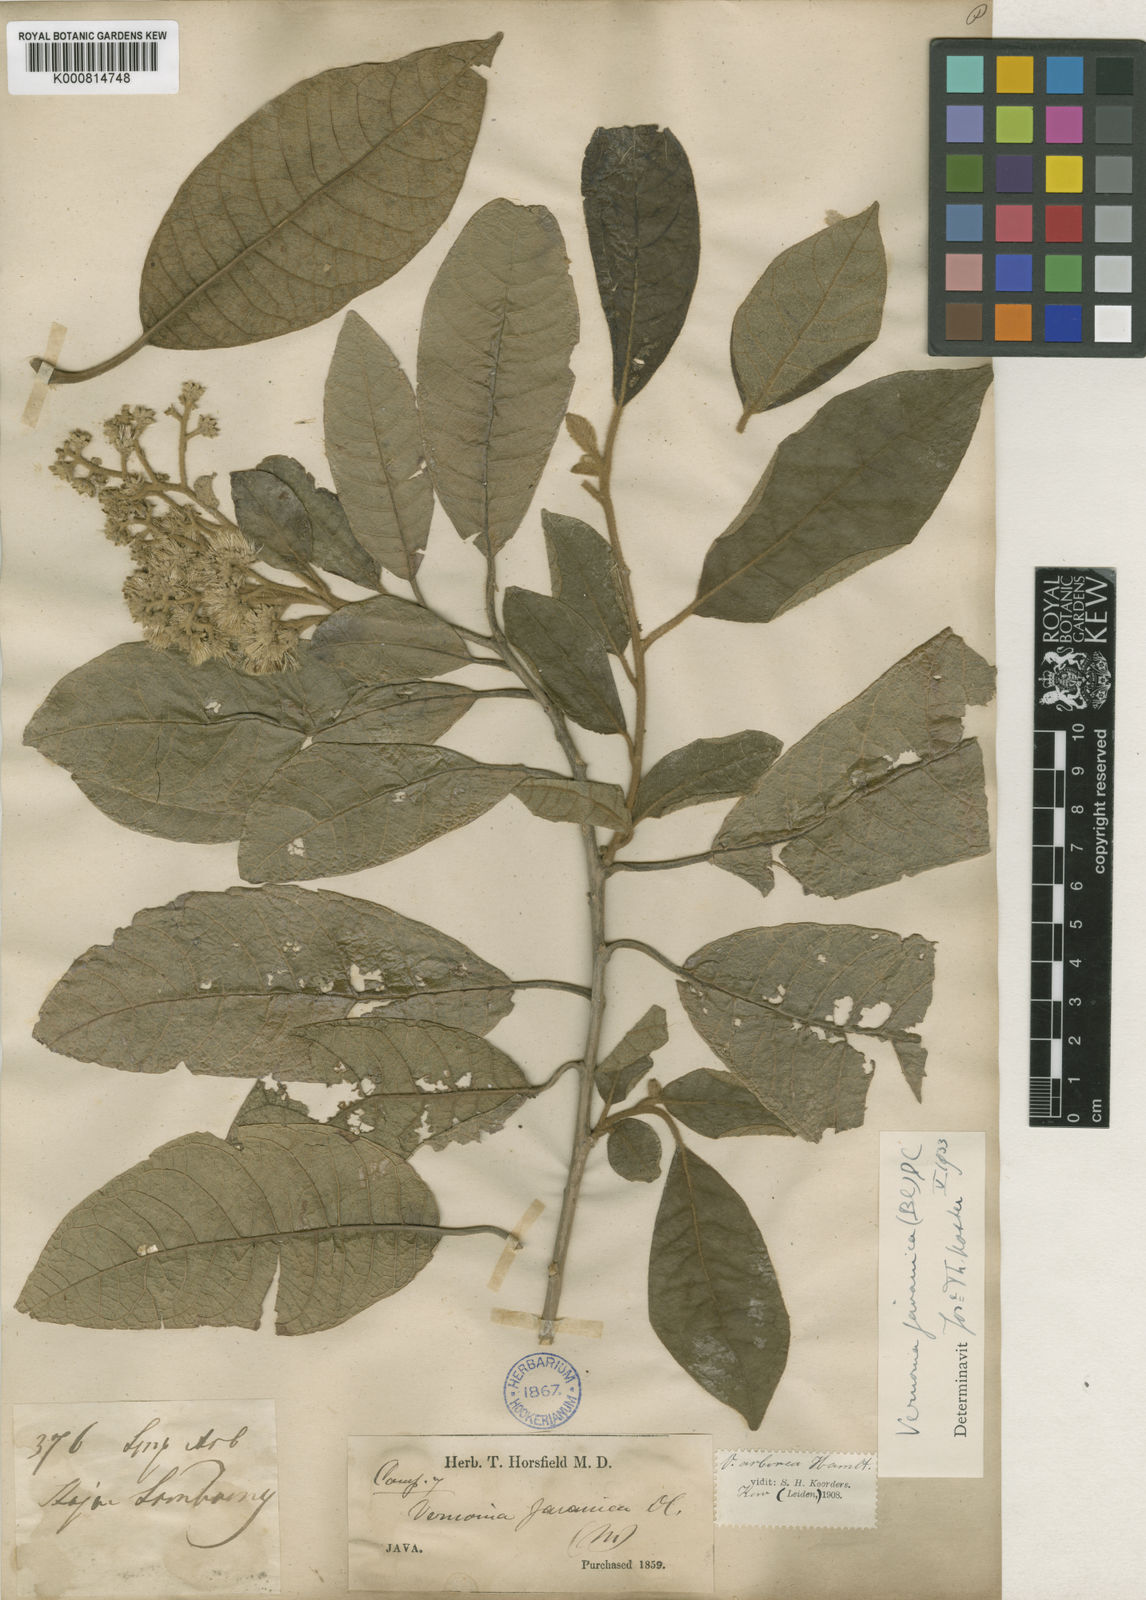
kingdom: Plantae
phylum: Tracheophyta
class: Magnoliopsida
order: Asterales
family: Asteraceae
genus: Strobocalyx
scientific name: Strobocalyx arborea
